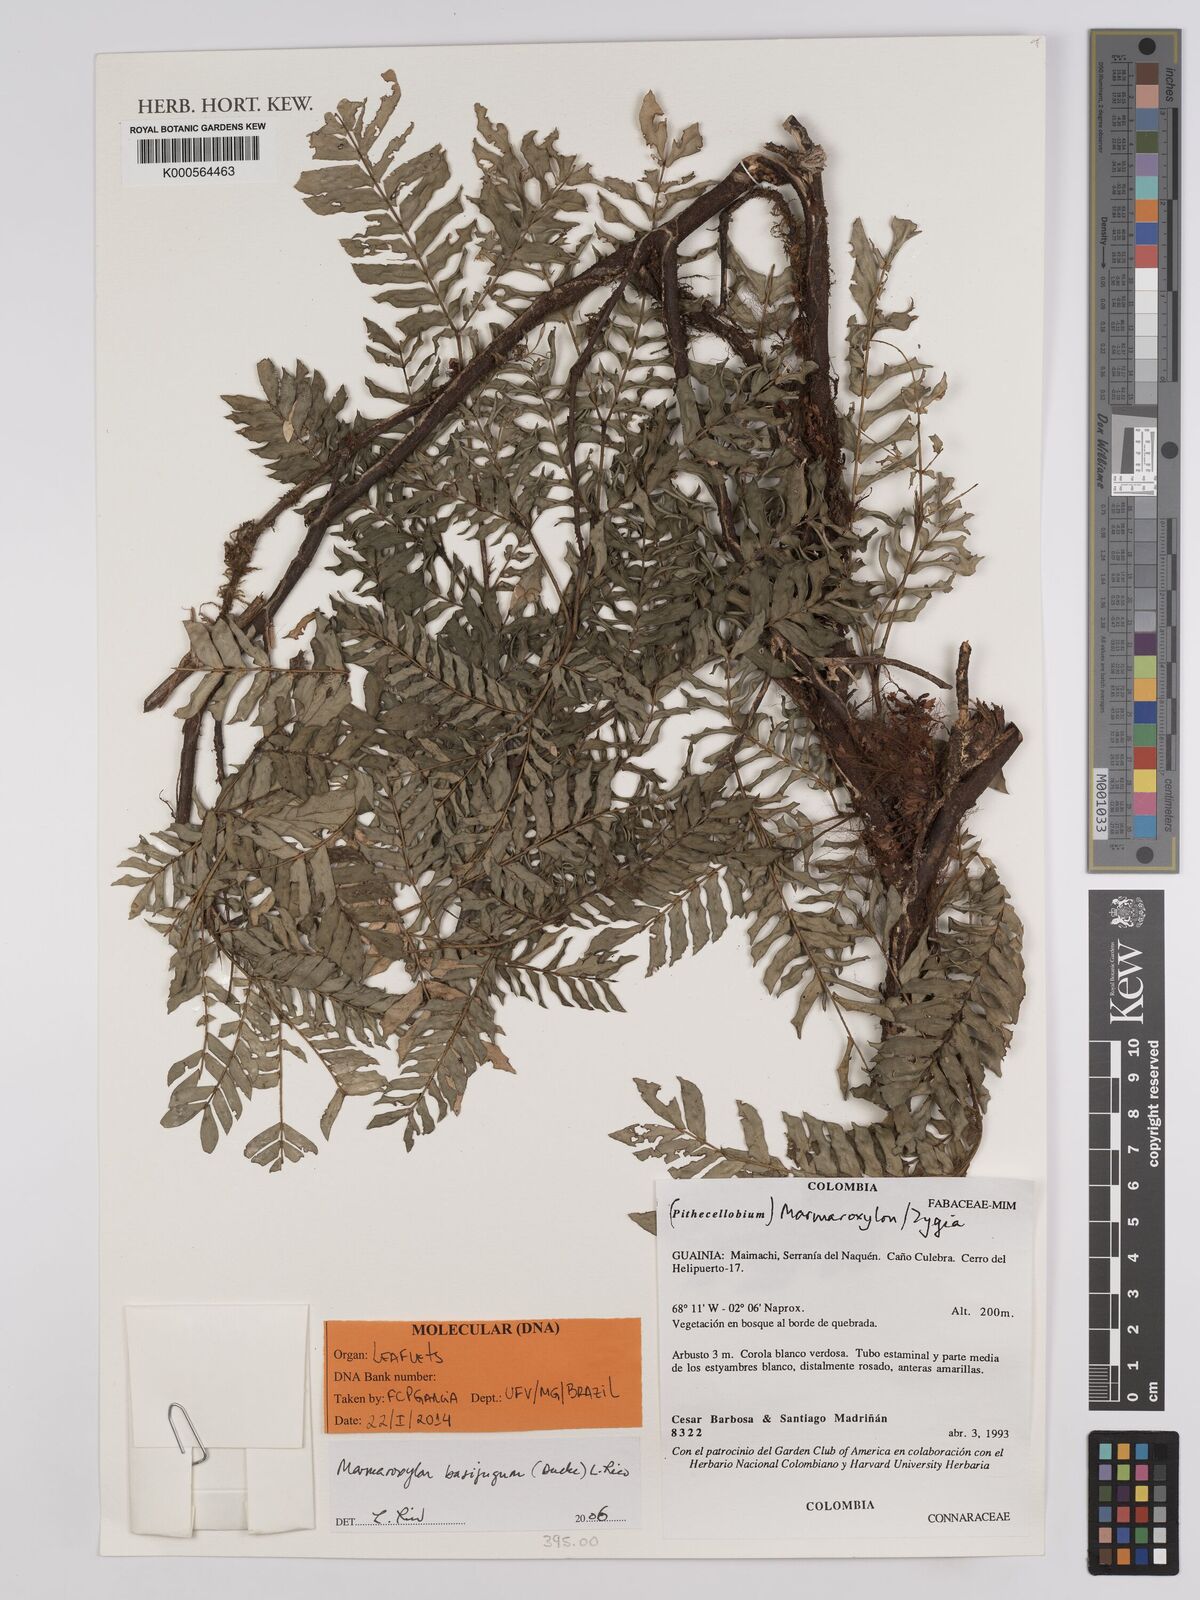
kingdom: Plantae
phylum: Tracheophyta
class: Magnoliopsida
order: Fabales
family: Fabaceae
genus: Zygia
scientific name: Zygia basijuga
